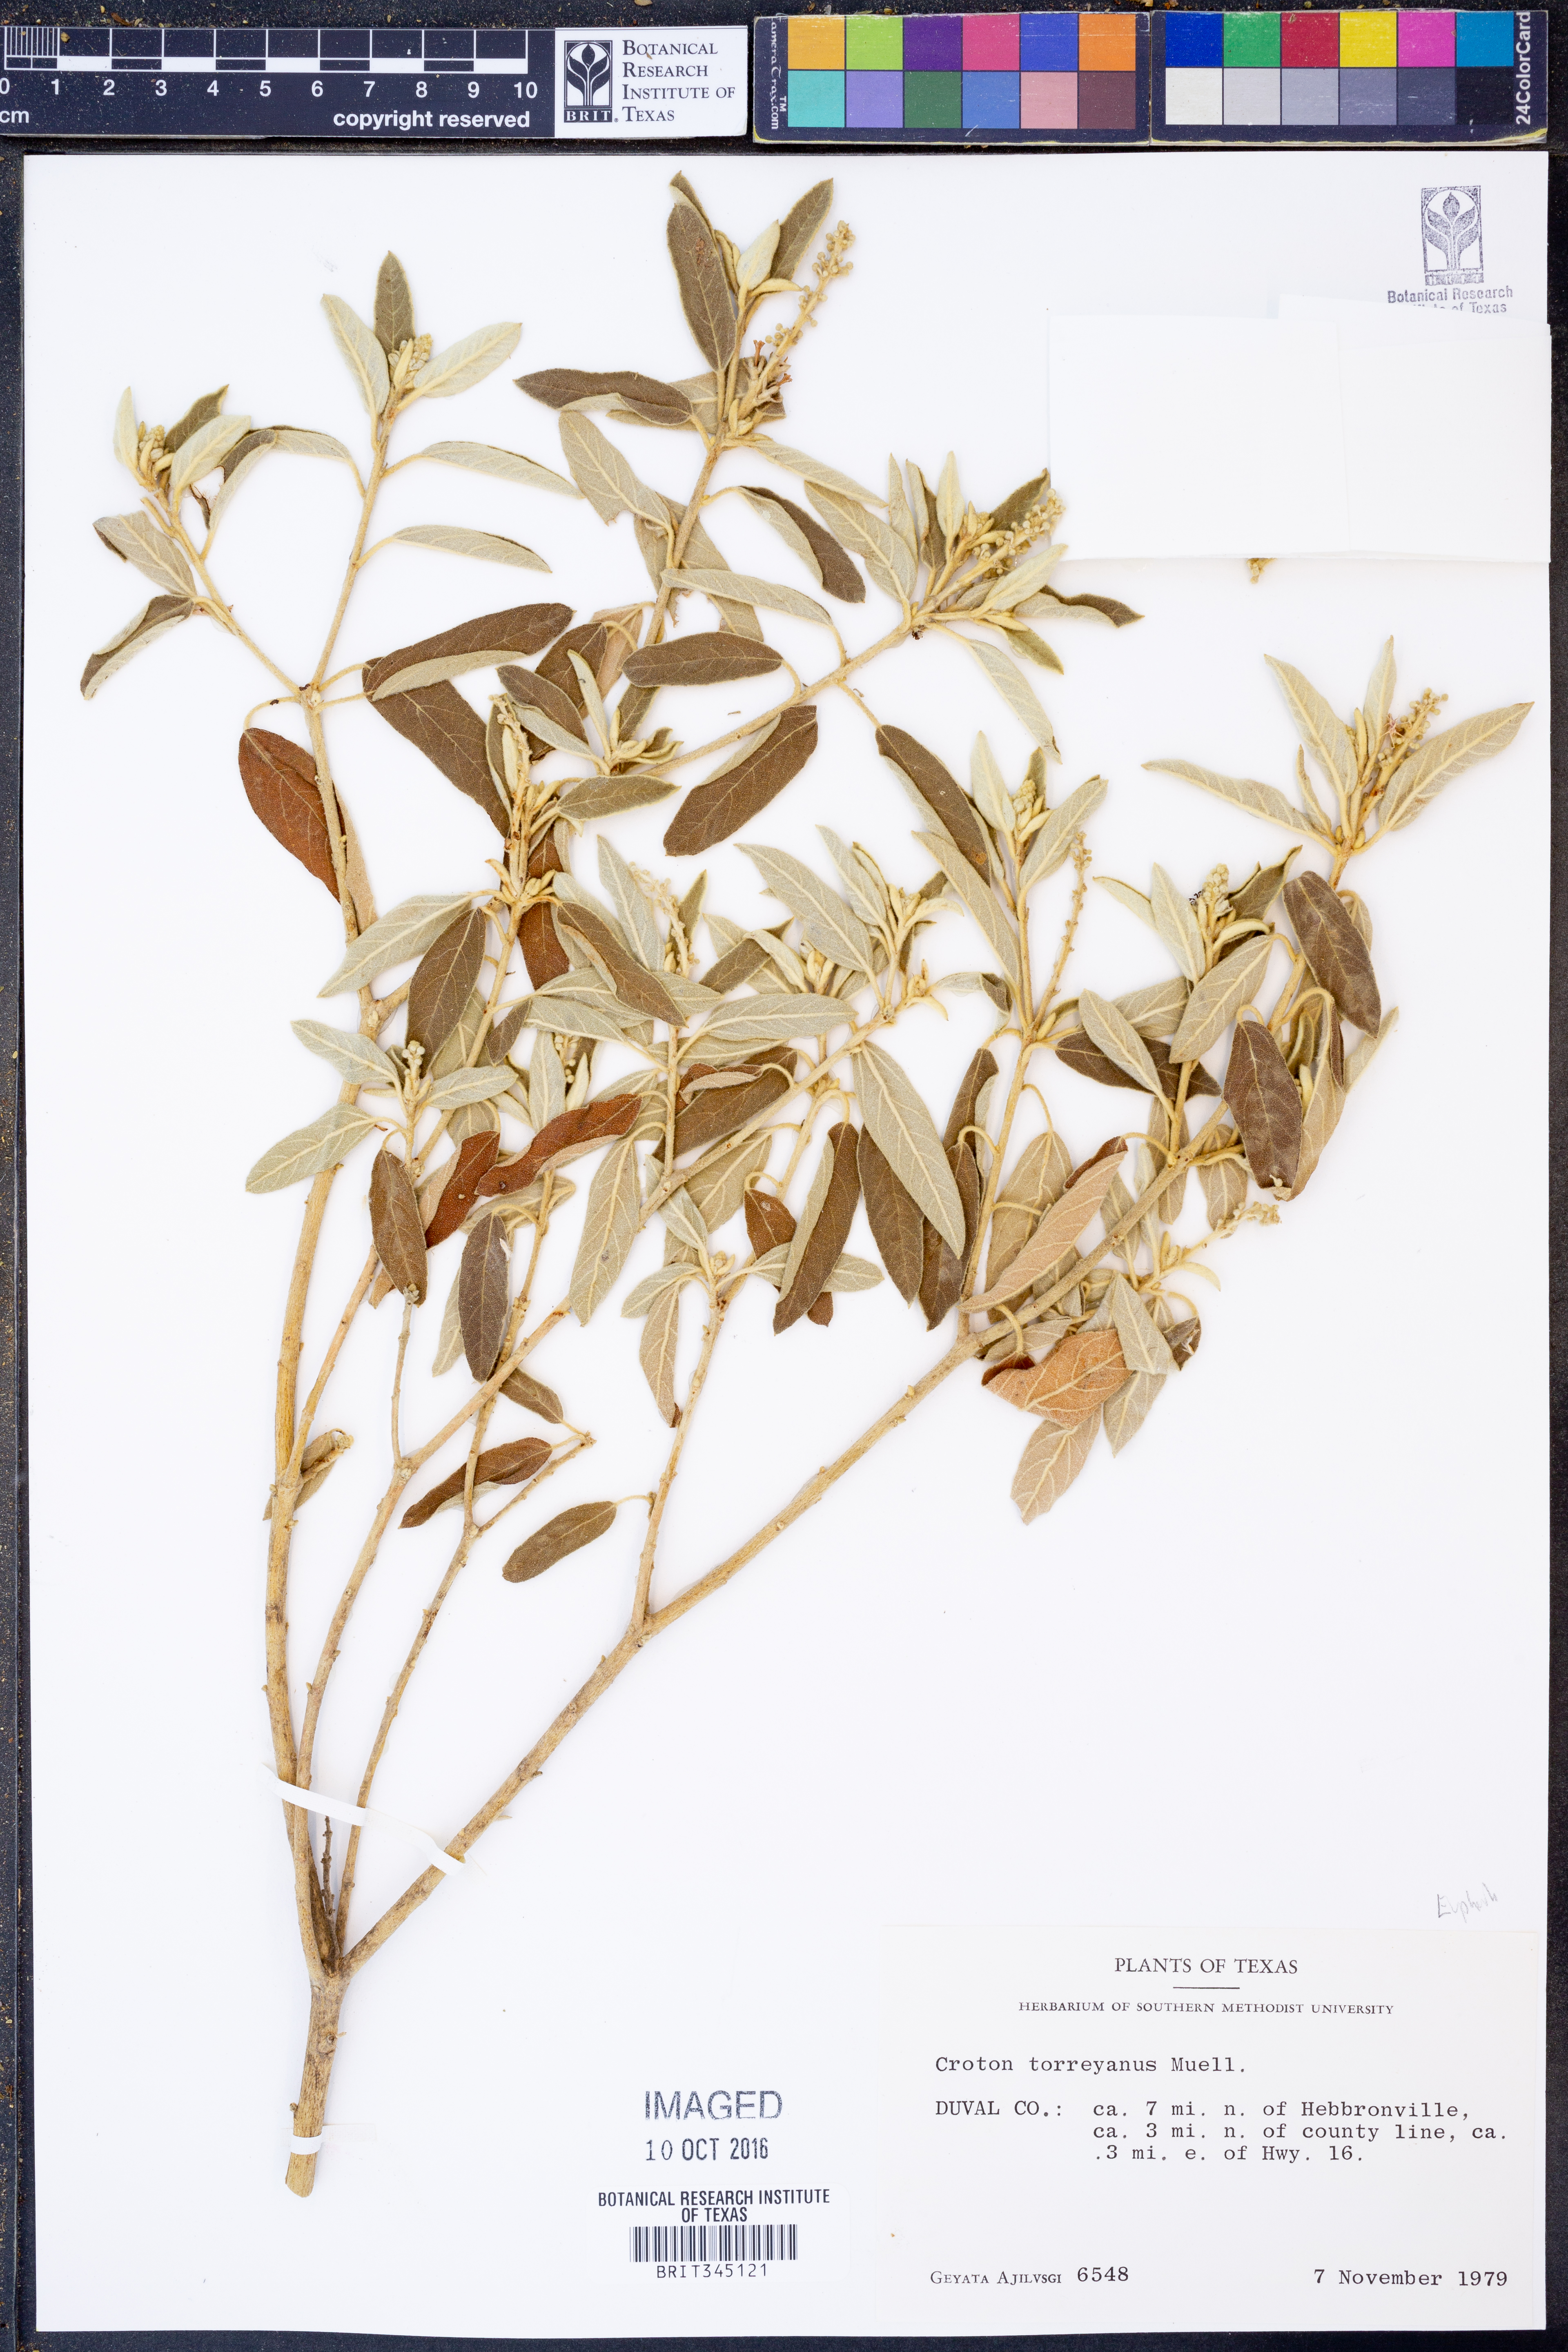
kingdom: Plantae
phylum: Tracheophyta
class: Magnoliopsida
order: Malpighiales
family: Euphorbiaceae
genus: Croton
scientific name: Croton incanus
